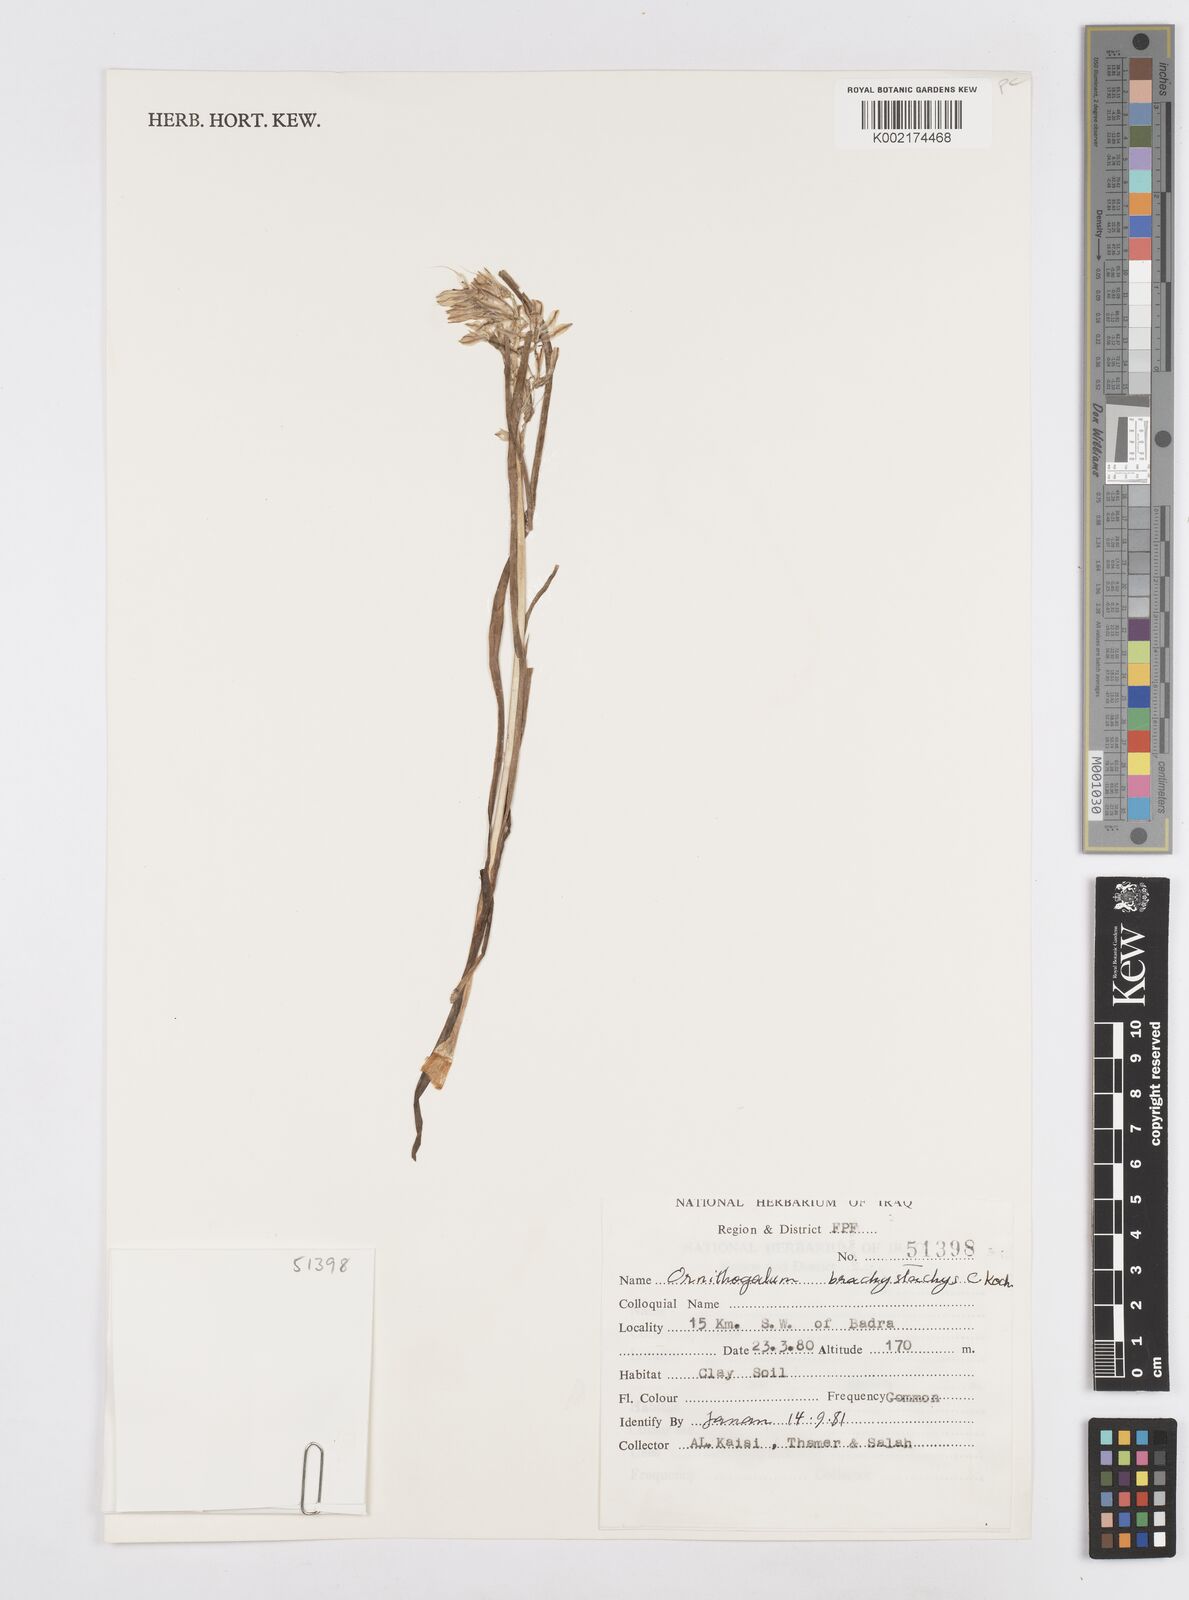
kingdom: Plantae
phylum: Tracheophyta
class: Liliopsida
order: Asparagales
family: Asparagaceae
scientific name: Asparagaceae
